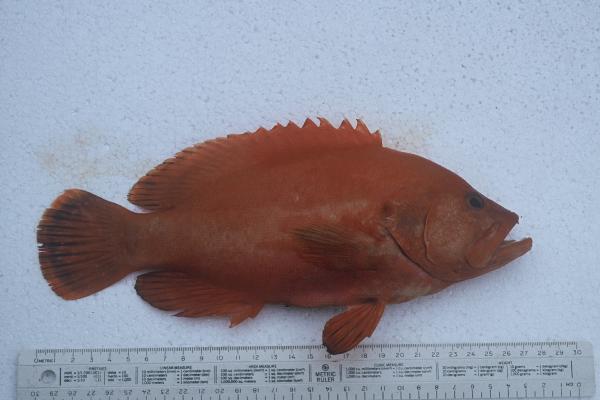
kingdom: Animalia
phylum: Chordata
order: Perciformes
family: Serranidae
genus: Cephalopholis
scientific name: Cephalopholis sonnerati
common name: Tomato hind
